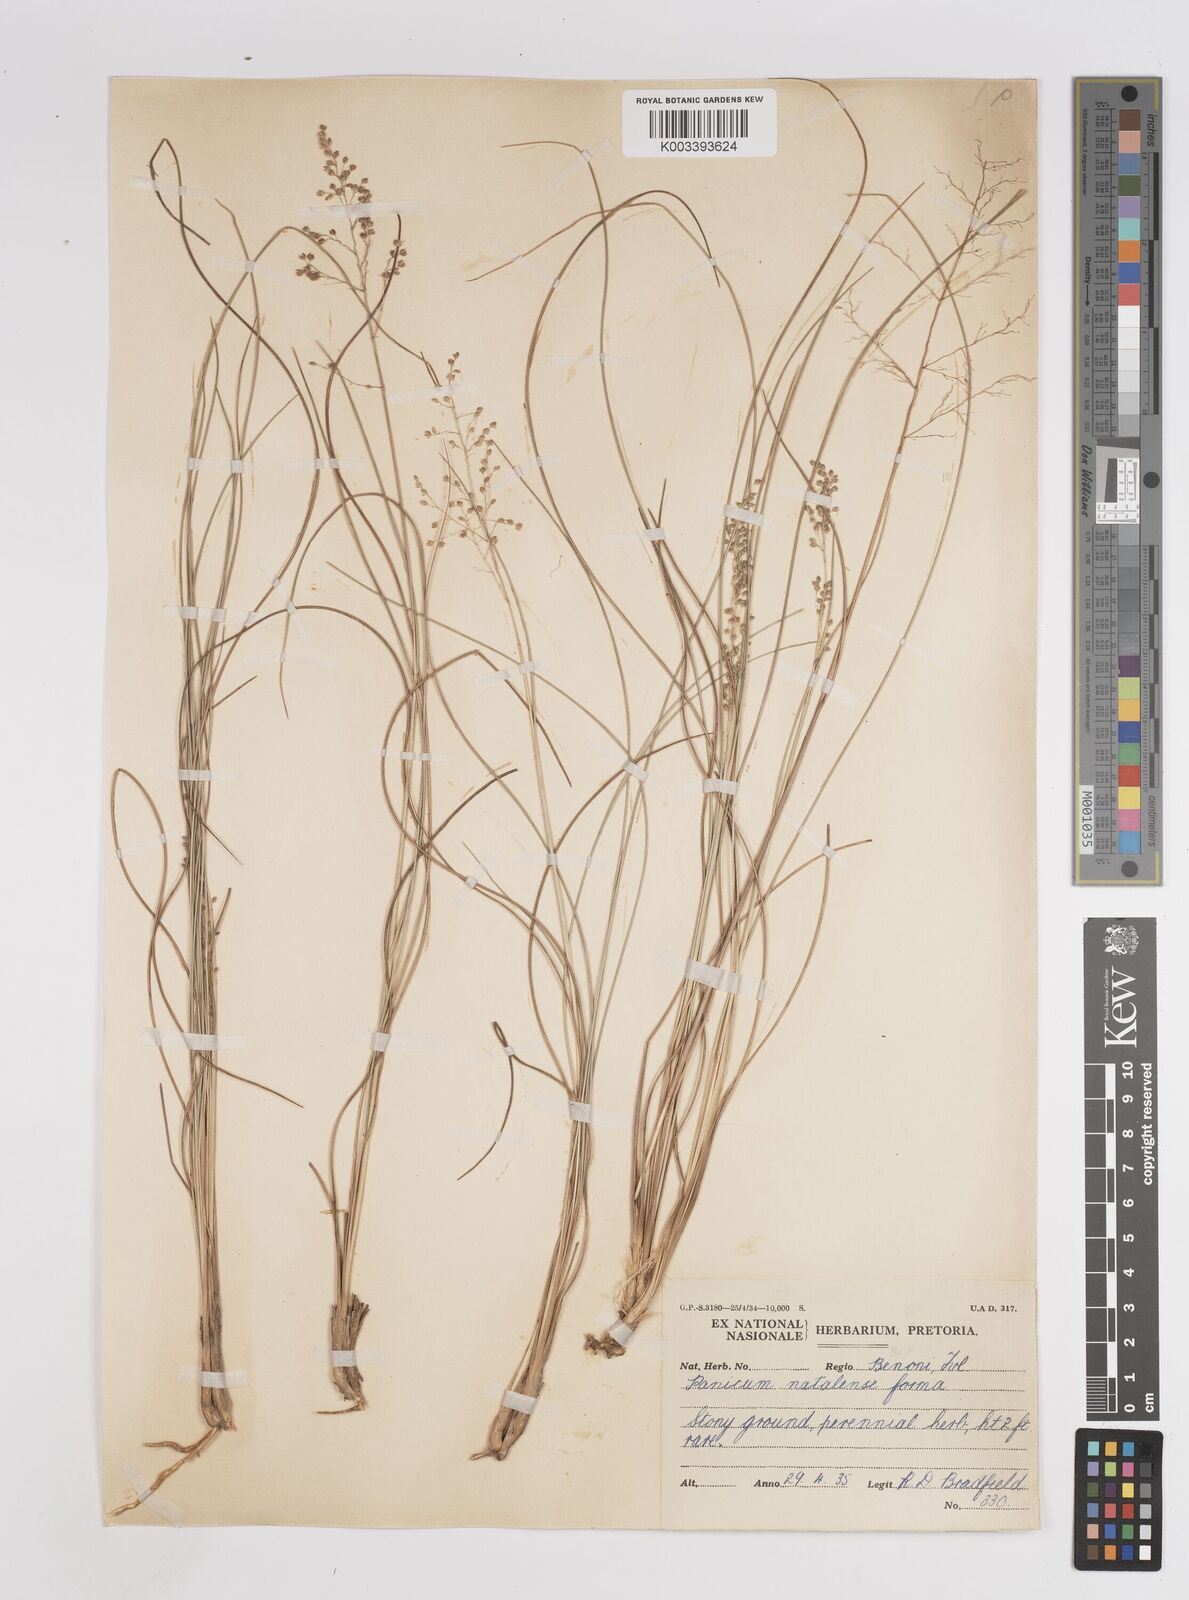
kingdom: Plantae
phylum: Tracheophyta
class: Liliopsida
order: Poales
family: Poaceae
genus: Trichanthecium
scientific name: Trichanthecium natalense
